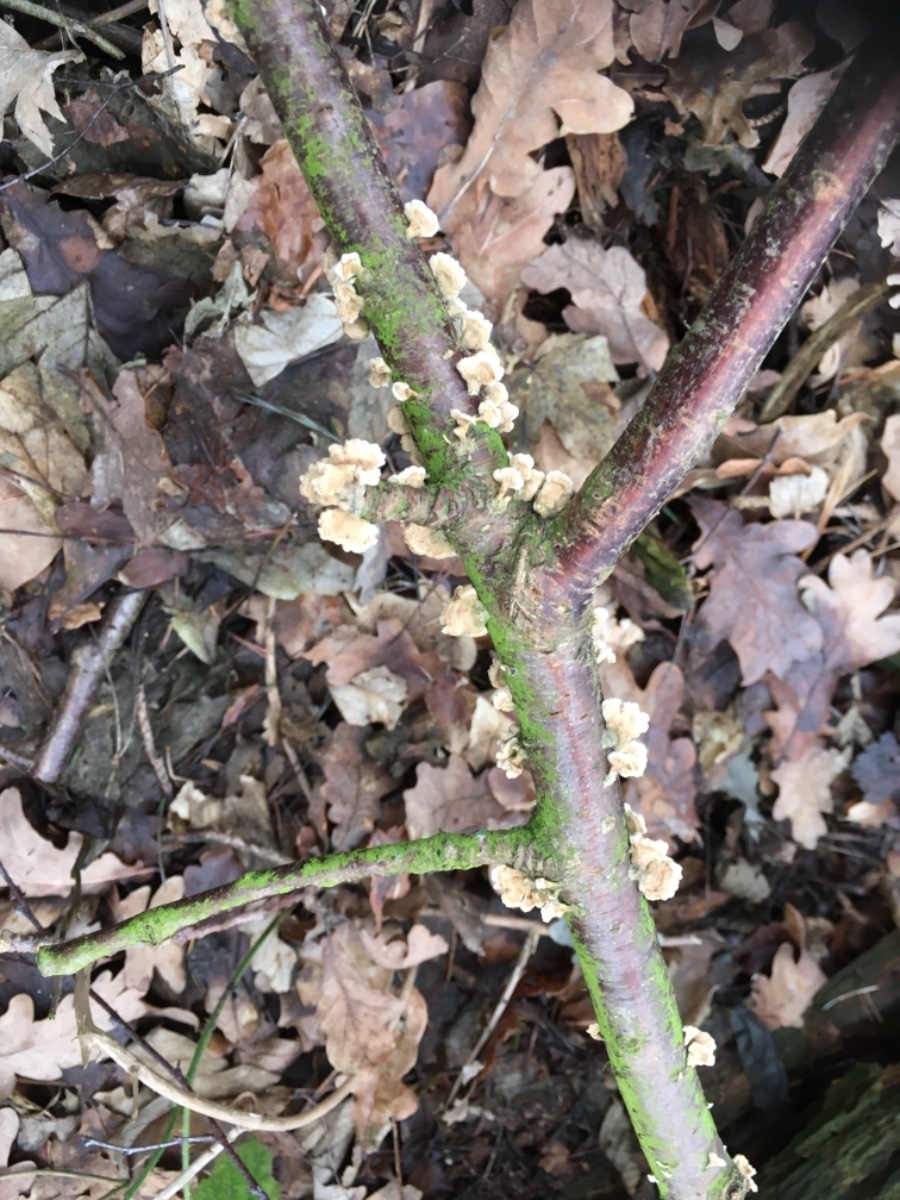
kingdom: Fungi
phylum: Basidiomycota
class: Agaricomycetes
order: Amylocorticiales
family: Amylocorticiaceae
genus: Plicaturopsis
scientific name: Plicaturopsis crispa
